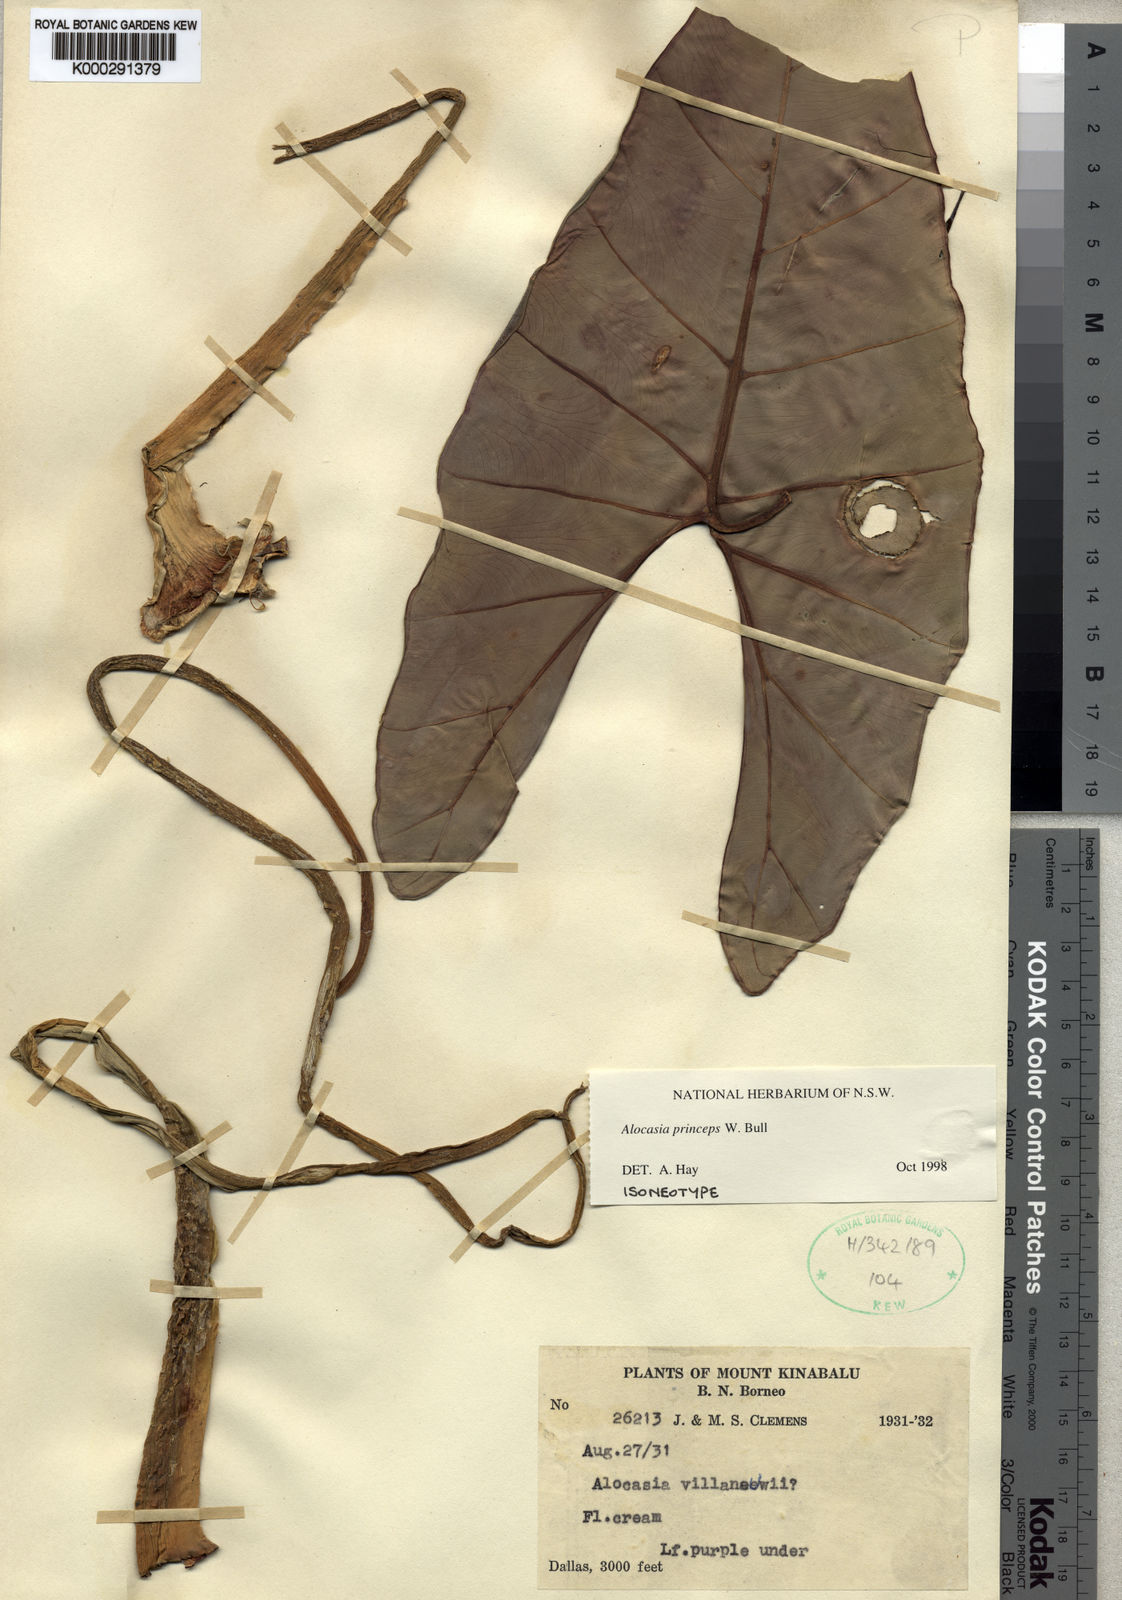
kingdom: Plantae
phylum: Tracheophyta
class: Liliopsida
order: Alismatales
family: Araceae
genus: Alocasia
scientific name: Alocasia princeps
